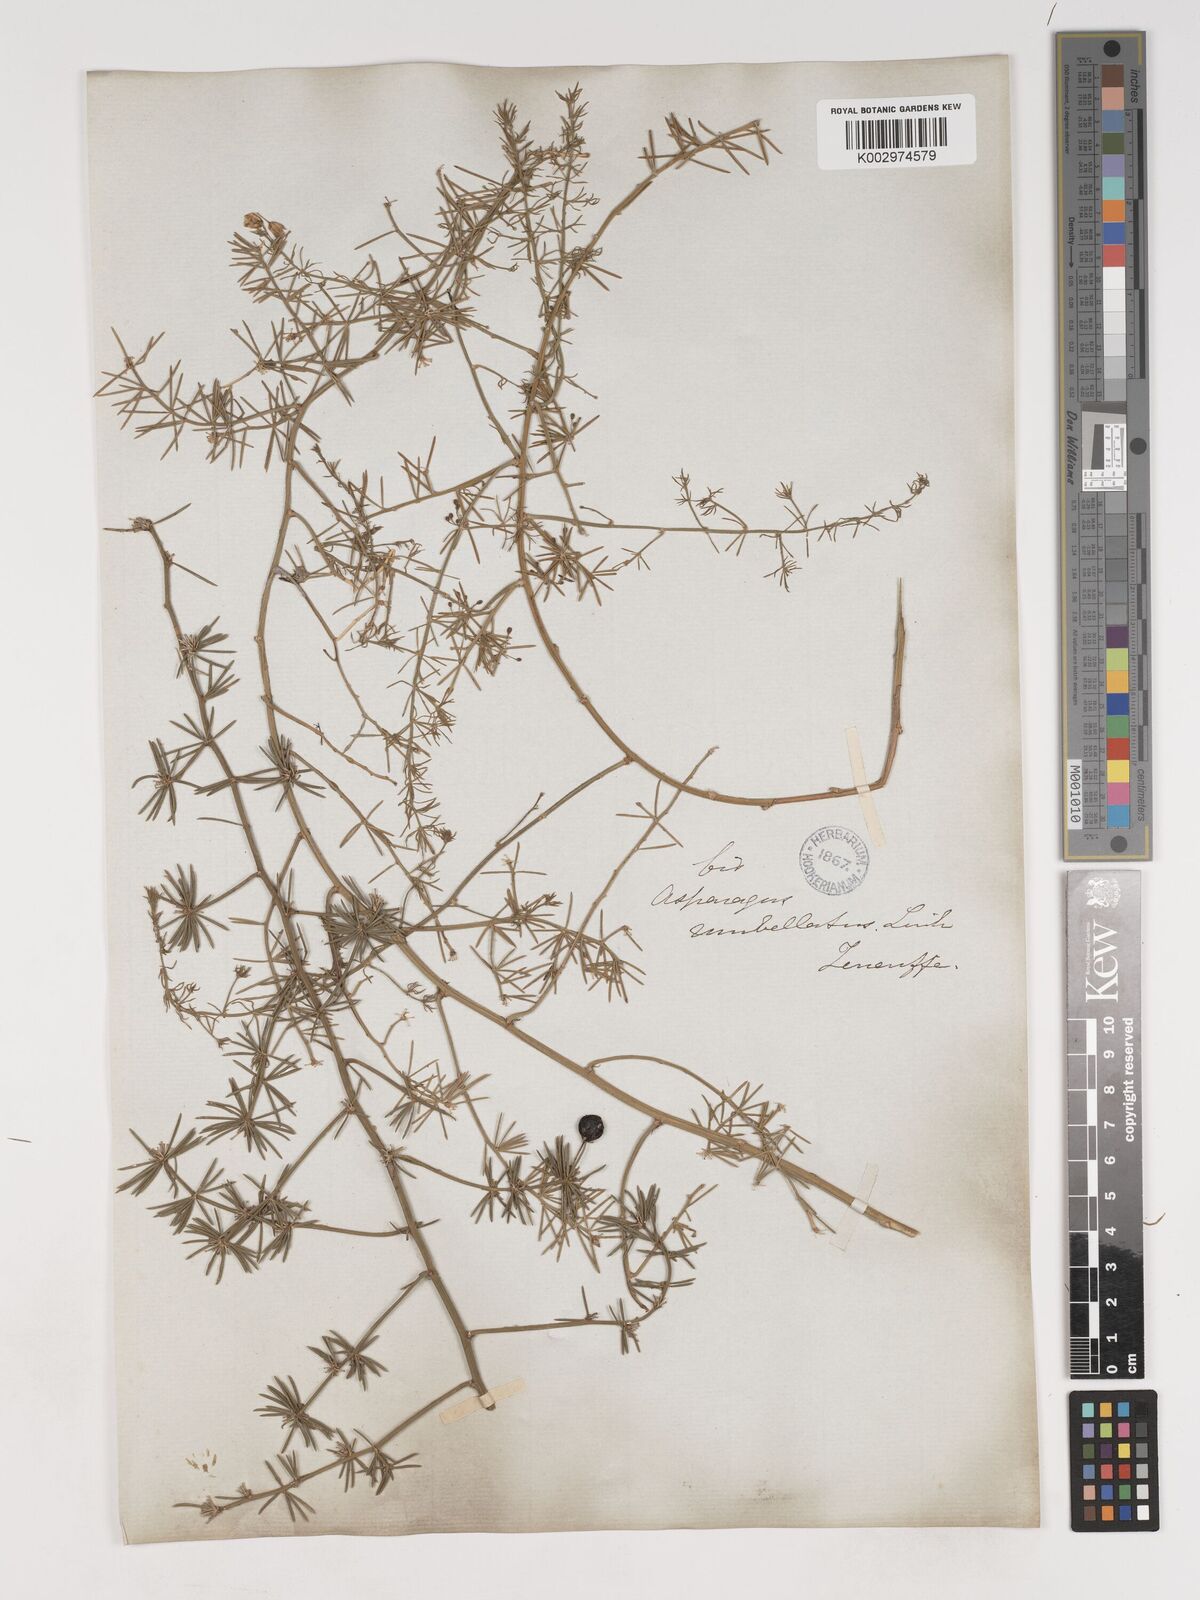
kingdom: Plantae
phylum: Tracheophyta
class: Liliopsida
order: Asparagales
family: Asparagaceae
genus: Asparagus
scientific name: Asparagus umbellatus
